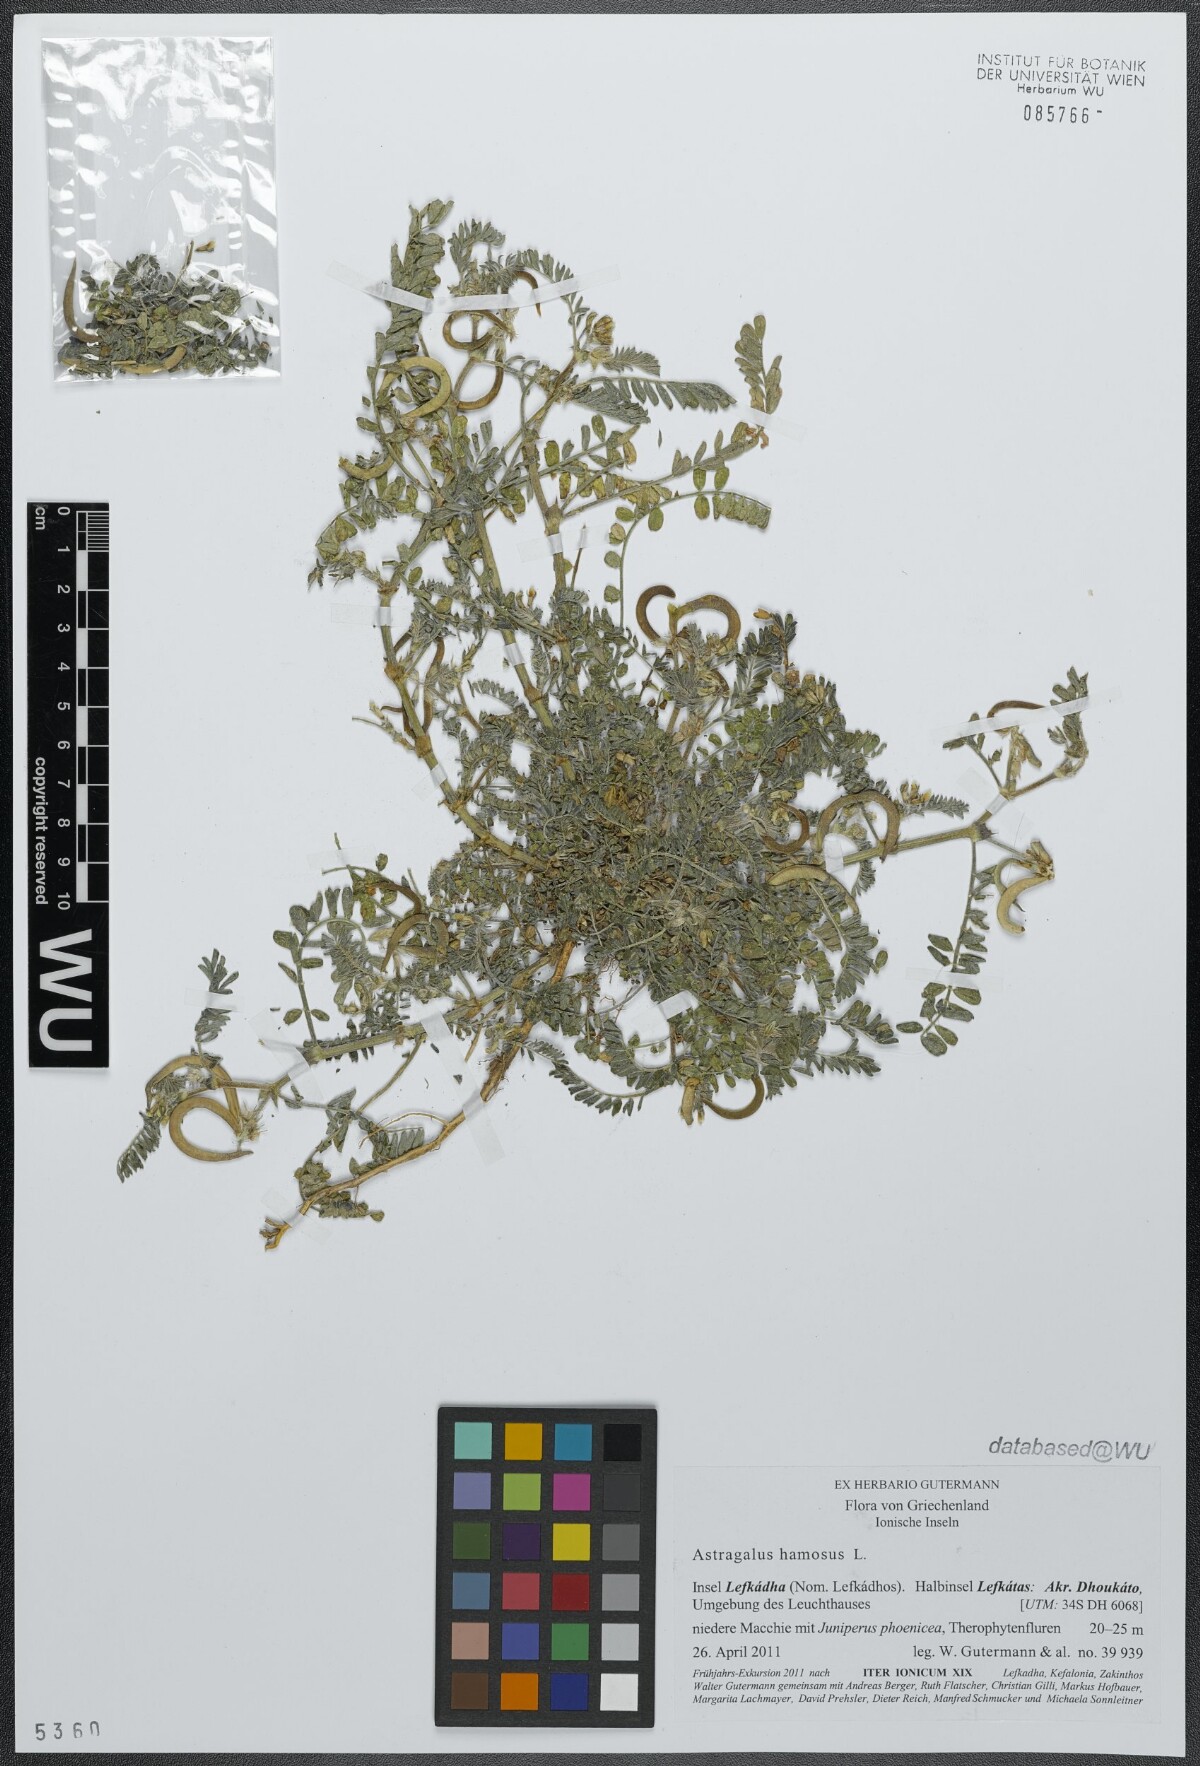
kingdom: Plantae
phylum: Tracheophyta
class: Magnoliopsida
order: Fabales
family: Fabaceae
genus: Astragalus
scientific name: Astragalus hamosus
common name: European milkvetch
